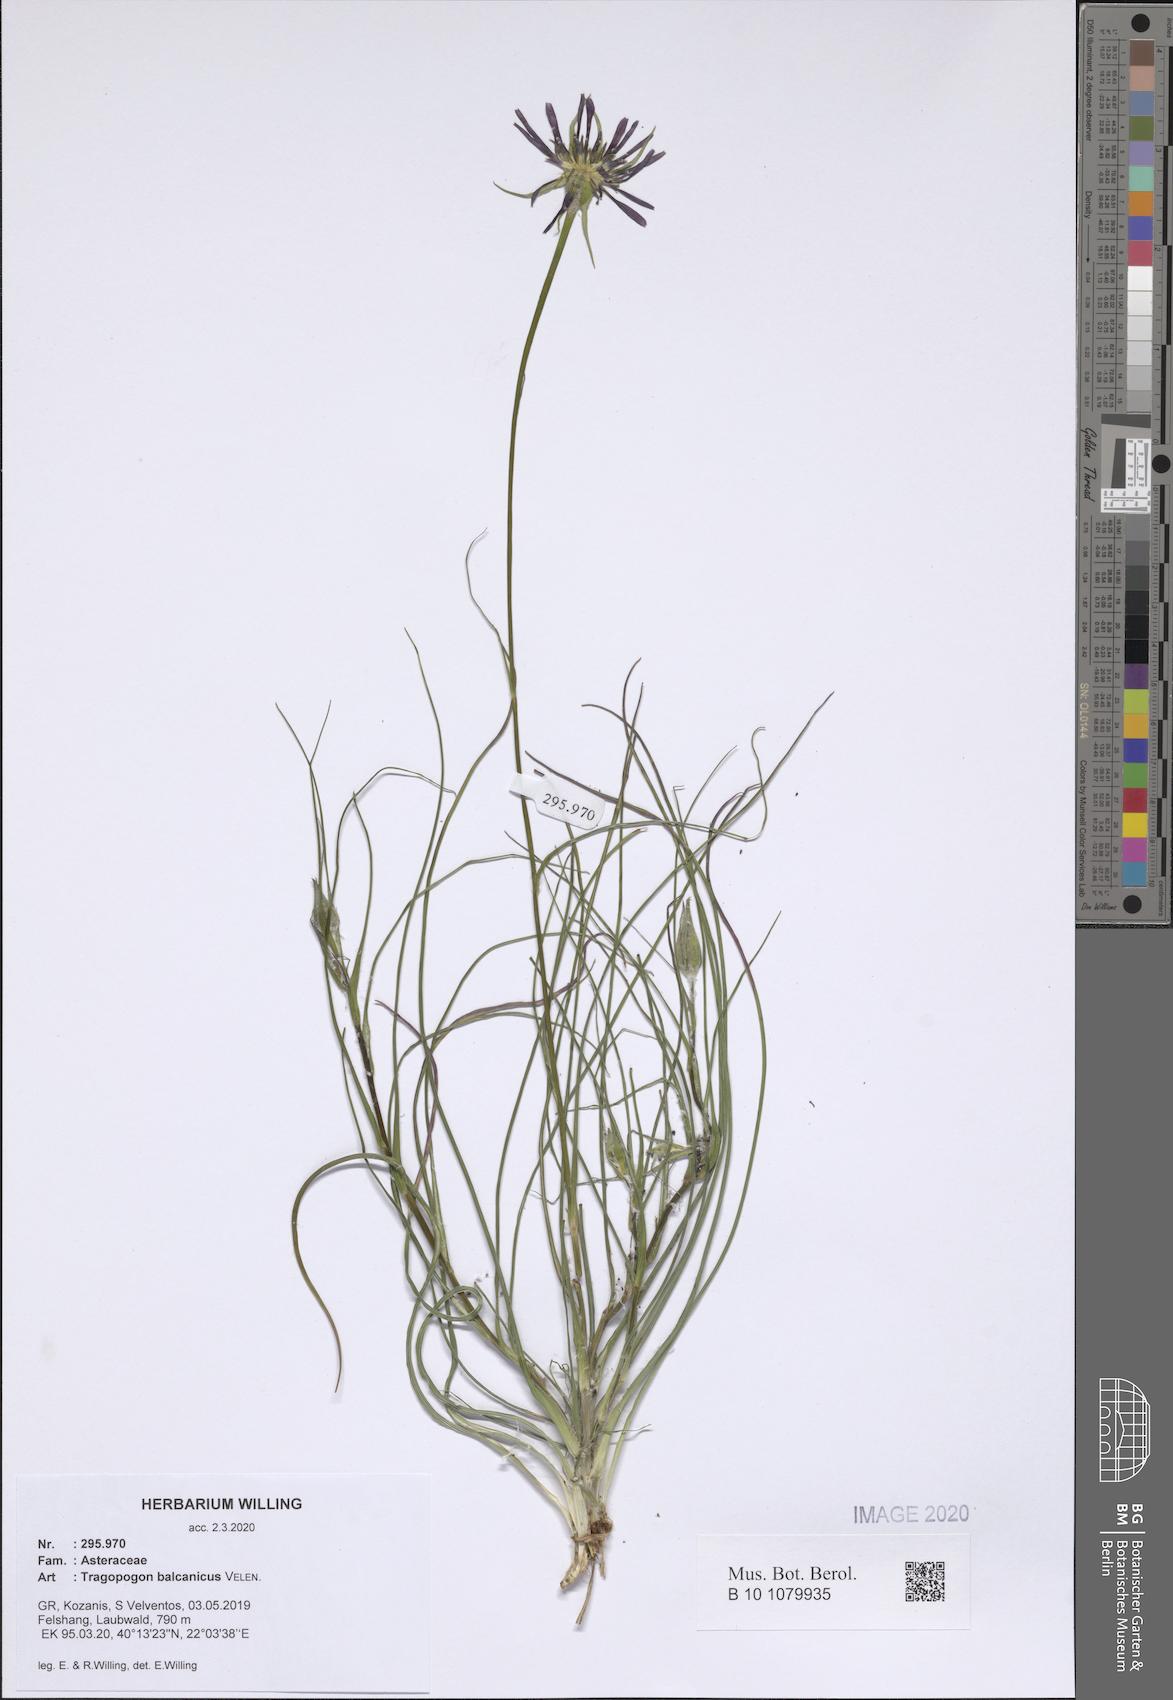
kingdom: Plantae
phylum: Tracheophyta
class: Magnoliopsida
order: Asterales
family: Asteraceae
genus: Tragopogon
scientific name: Tragopogon balcanicus
